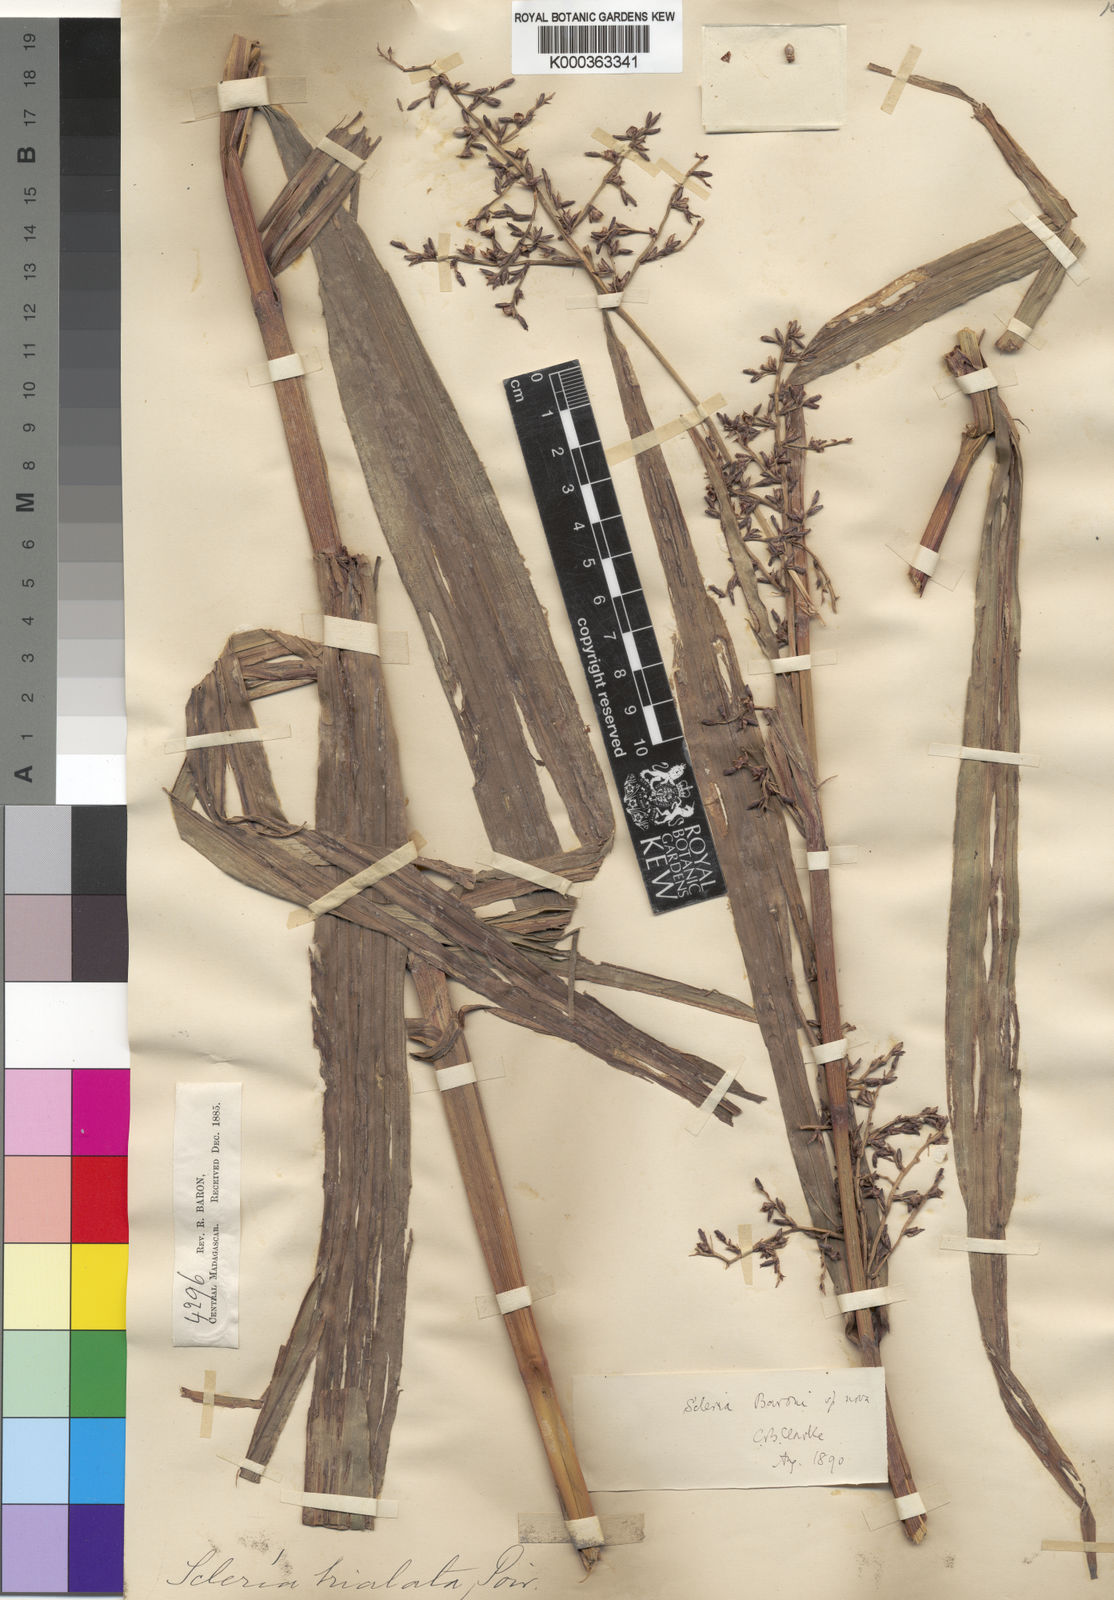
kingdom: Plantae
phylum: Tracheophyta
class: Liliopsida
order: Poales
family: Cyperaceae
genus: Scleria
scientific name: Scleria baronii
